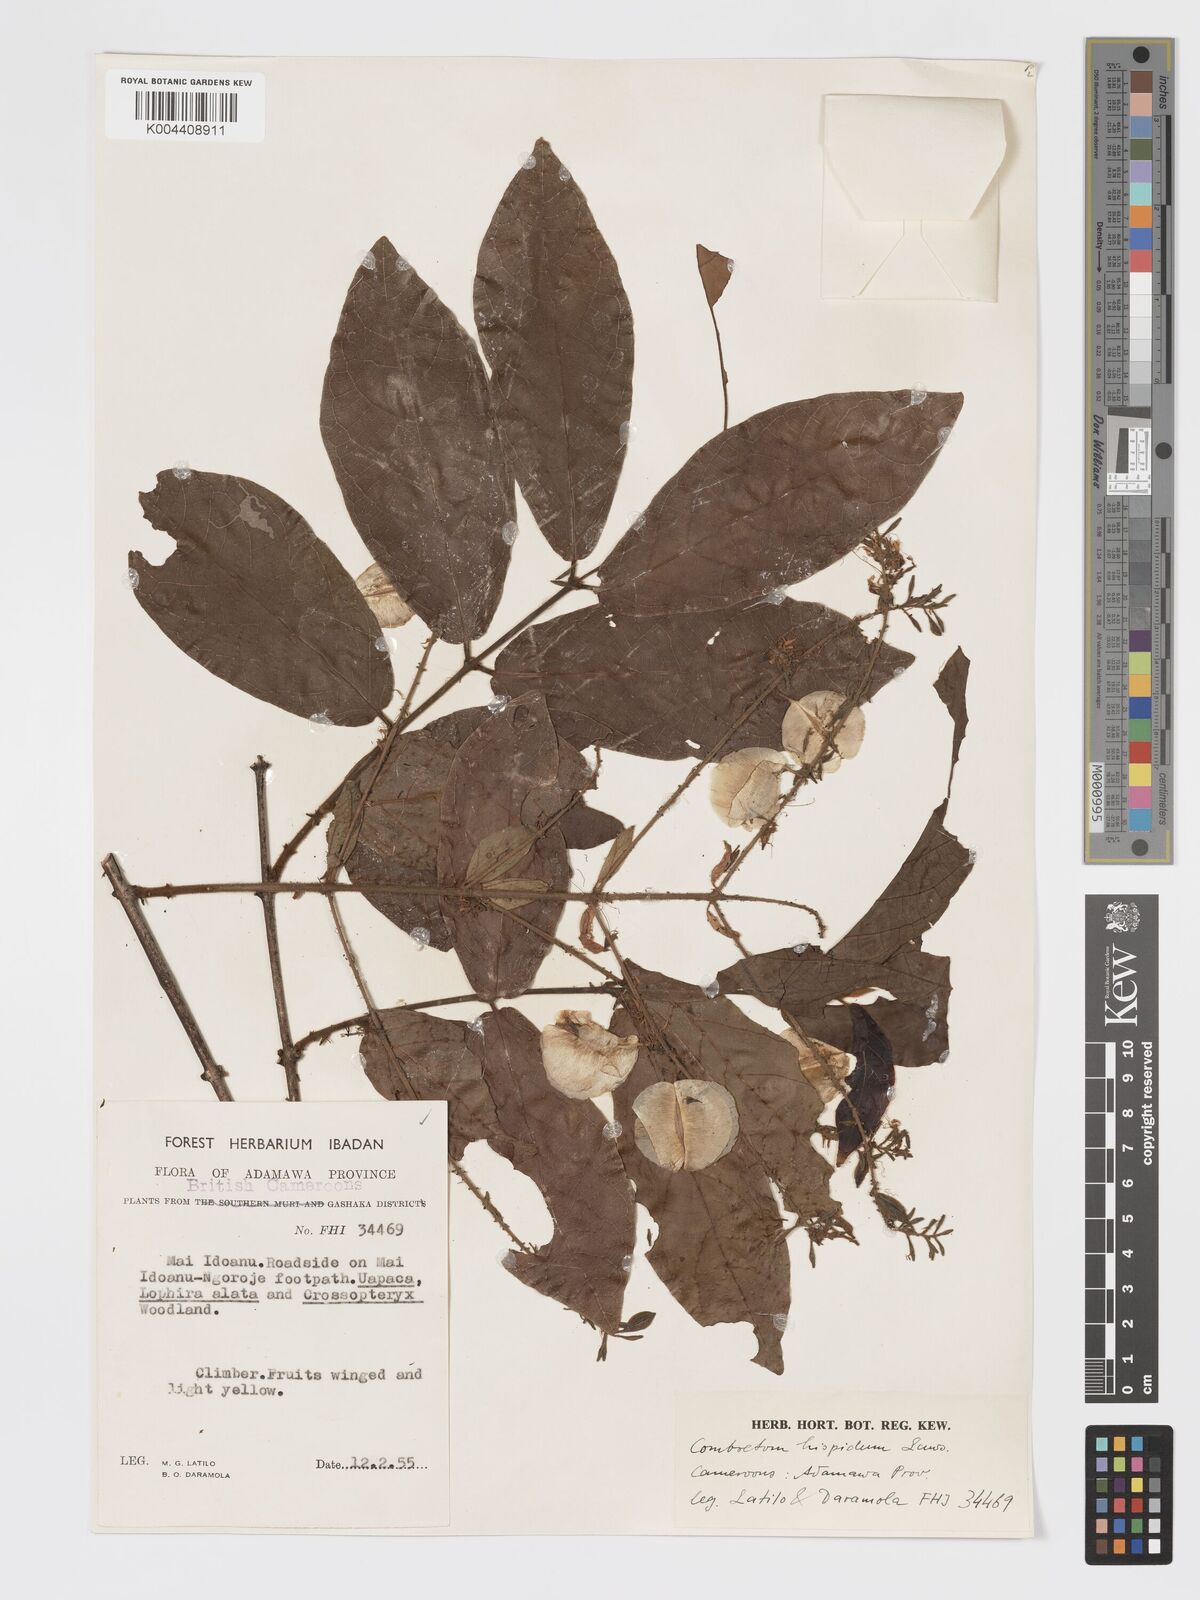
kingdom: Plantae
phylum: Tracheophyta
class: Magnoliopsida
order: Myrtales
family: Combretaceae
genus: Combretum
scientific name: Combretum comosum
